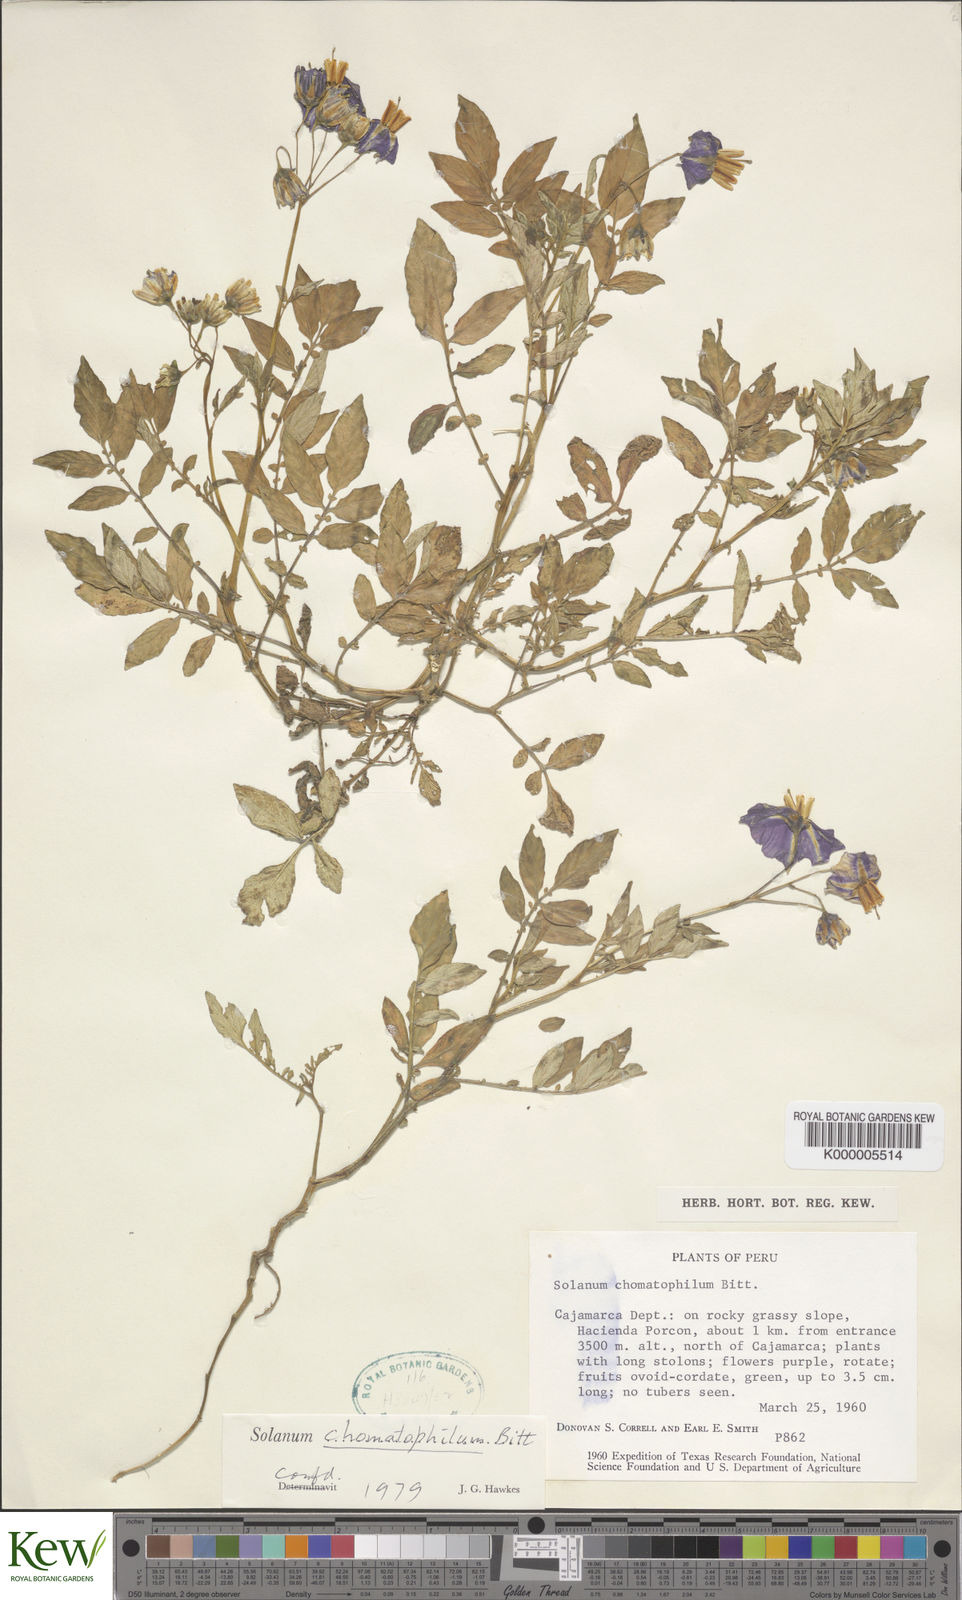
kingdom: Plantae
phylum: Tracheophyta
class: Magnoliopsida
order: Solanales
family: Solanaceae
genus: Solanum
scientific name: Solanum chomatophilum
